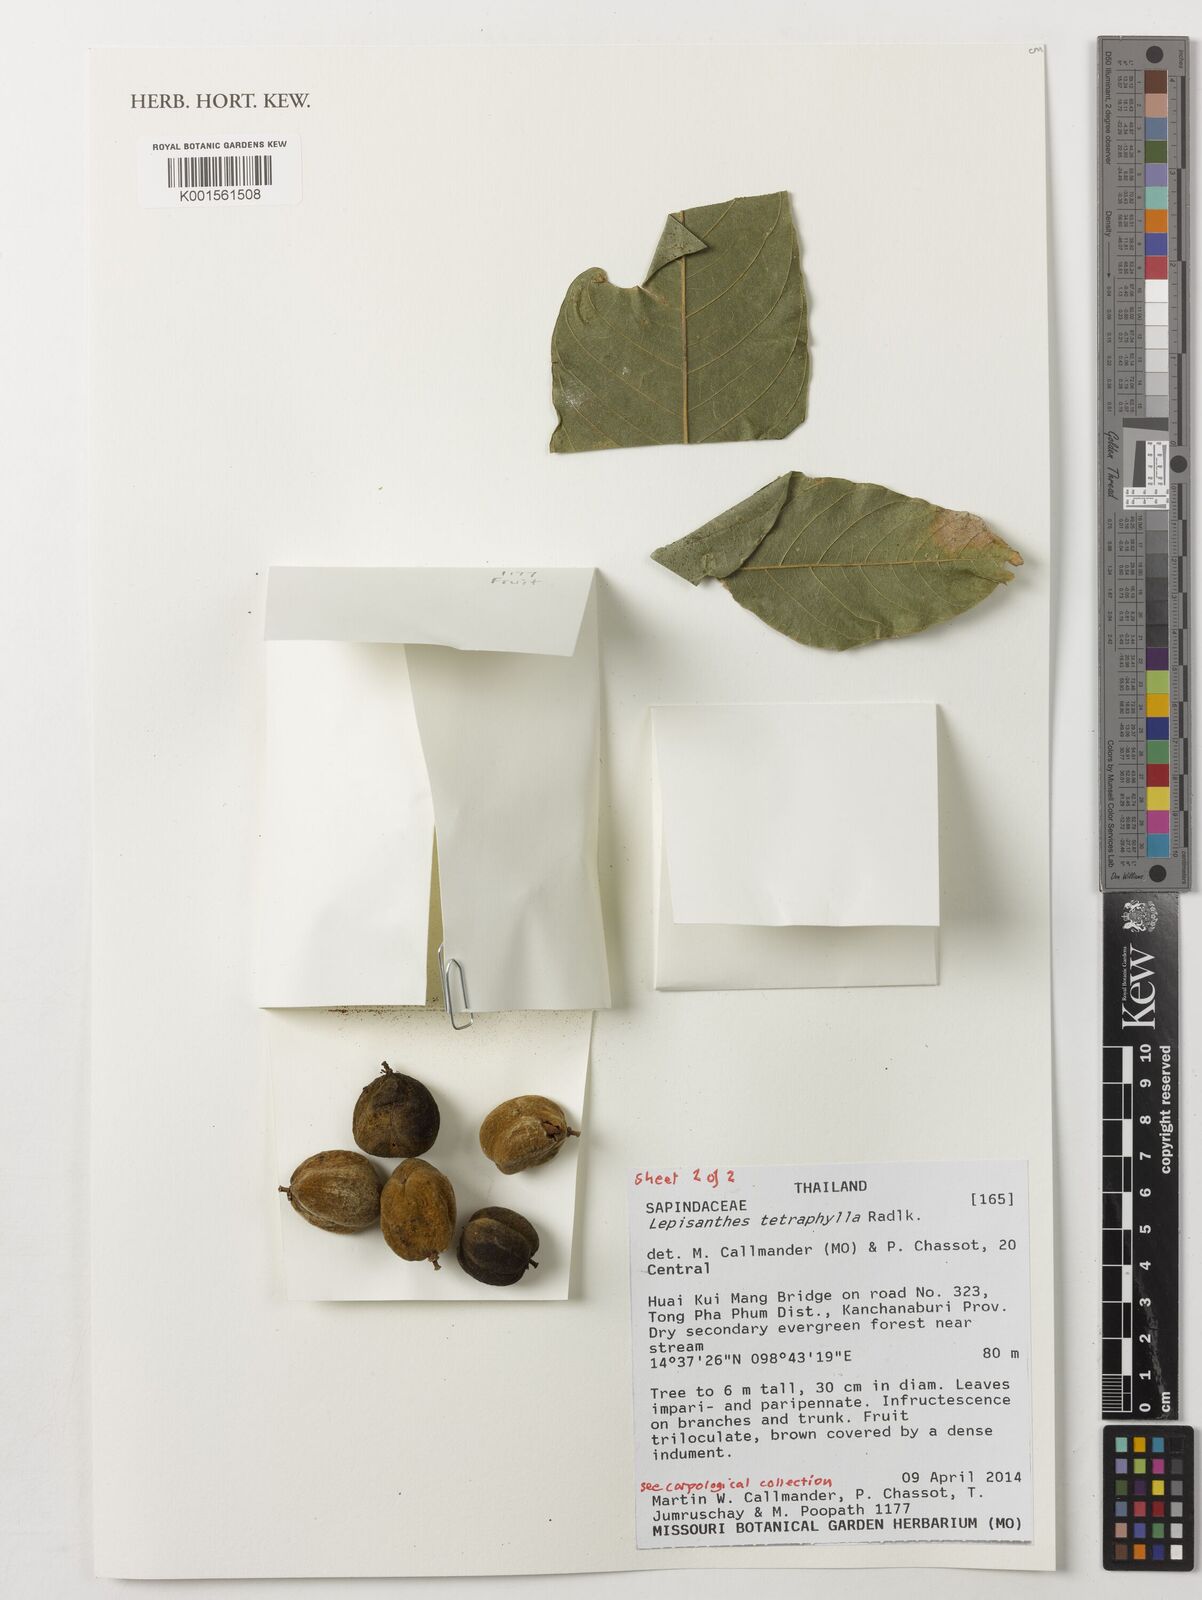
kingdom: Plantae
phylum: Tracheophyta
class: Magnoliopsida
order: Sapindales
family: Sapindaceae
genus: Lepisanthes
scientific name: Lepisanthes tetraphylla
